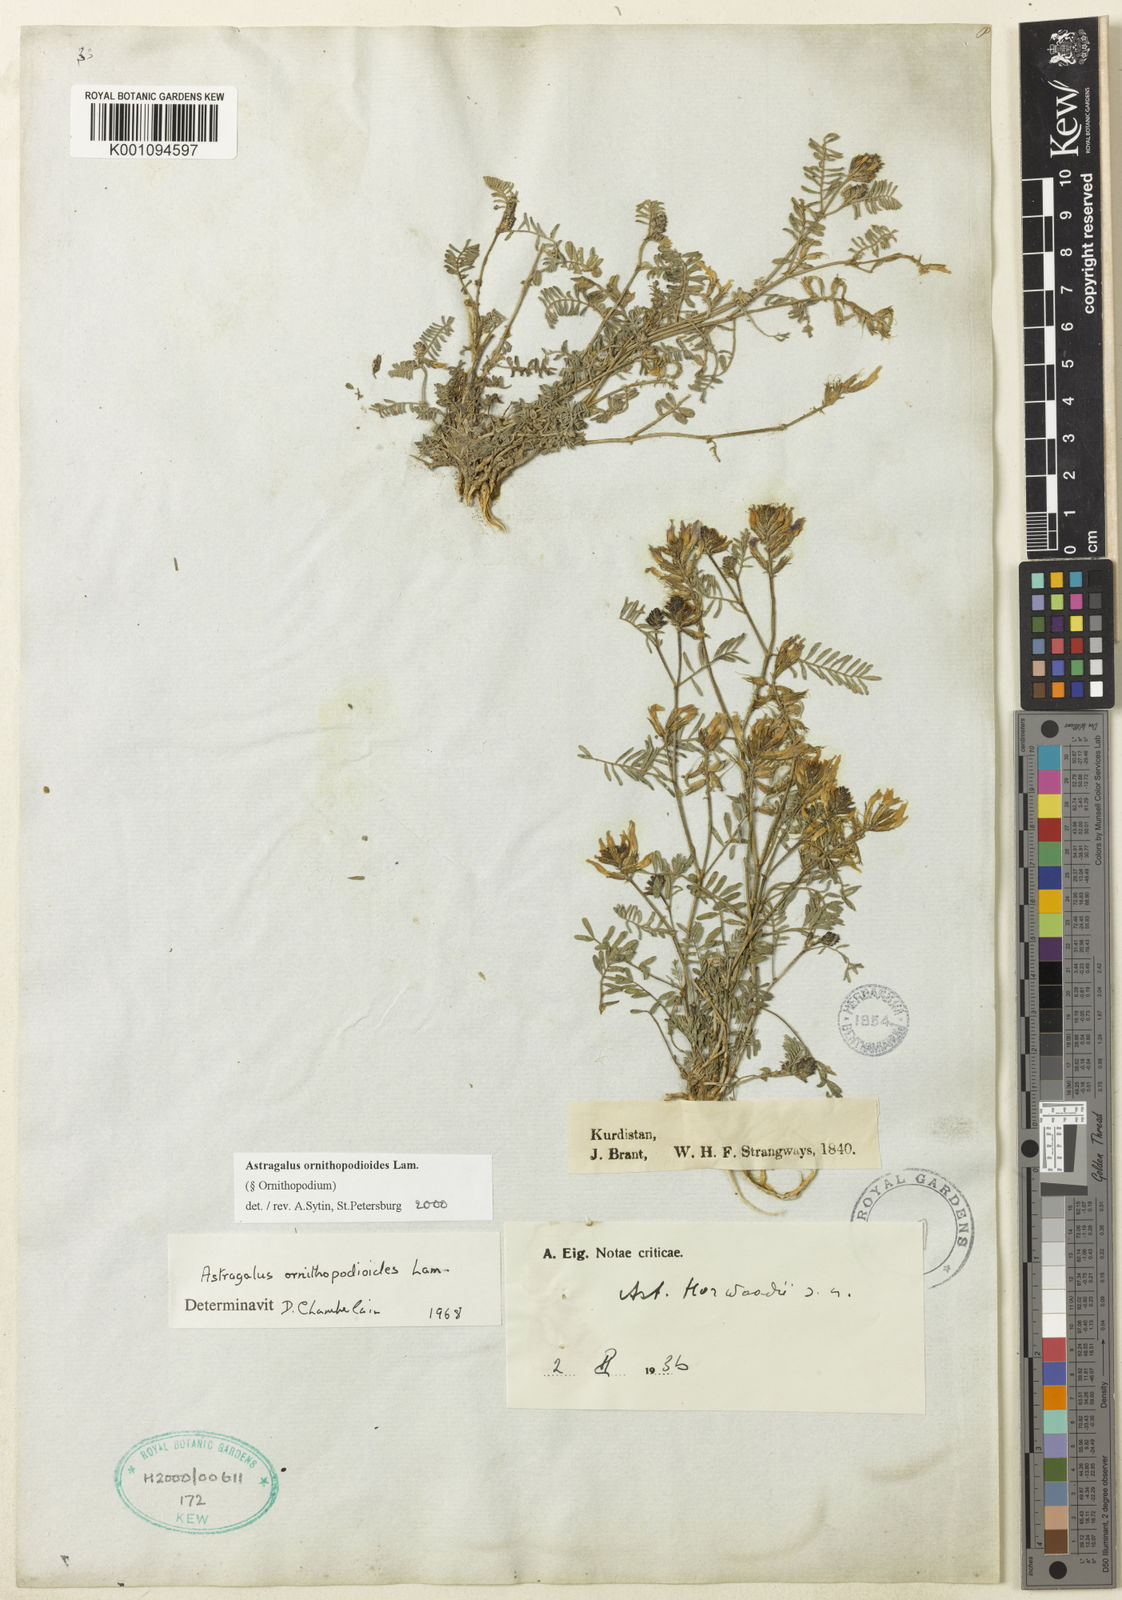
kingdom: Plantae
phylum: Tracheophyta
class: Magnoliopsida
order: Fabales
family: Fabaceae
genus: Astragalus
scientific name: Astragalus
